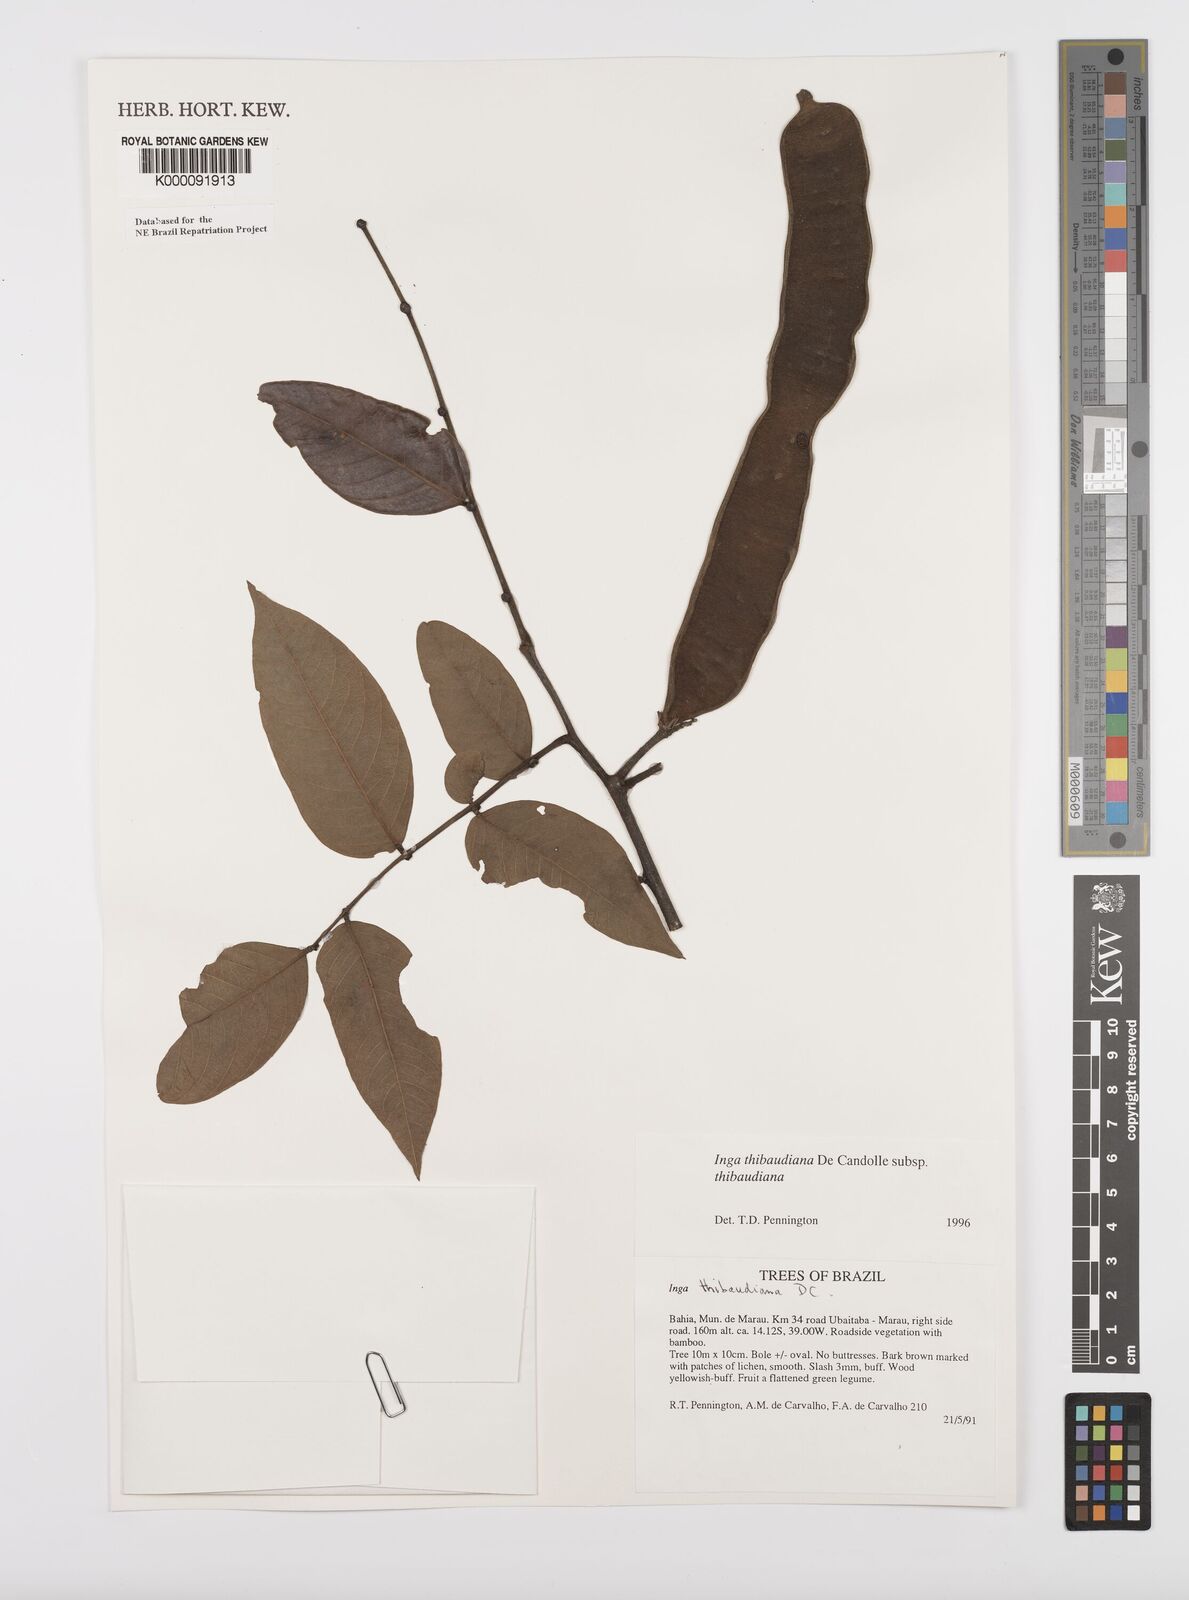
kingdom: Plantae
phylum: Tracheophyta
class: Magnoliopsida
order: Fabales
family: Fabaceae
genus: Inga
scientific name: Inga thibaudiana
